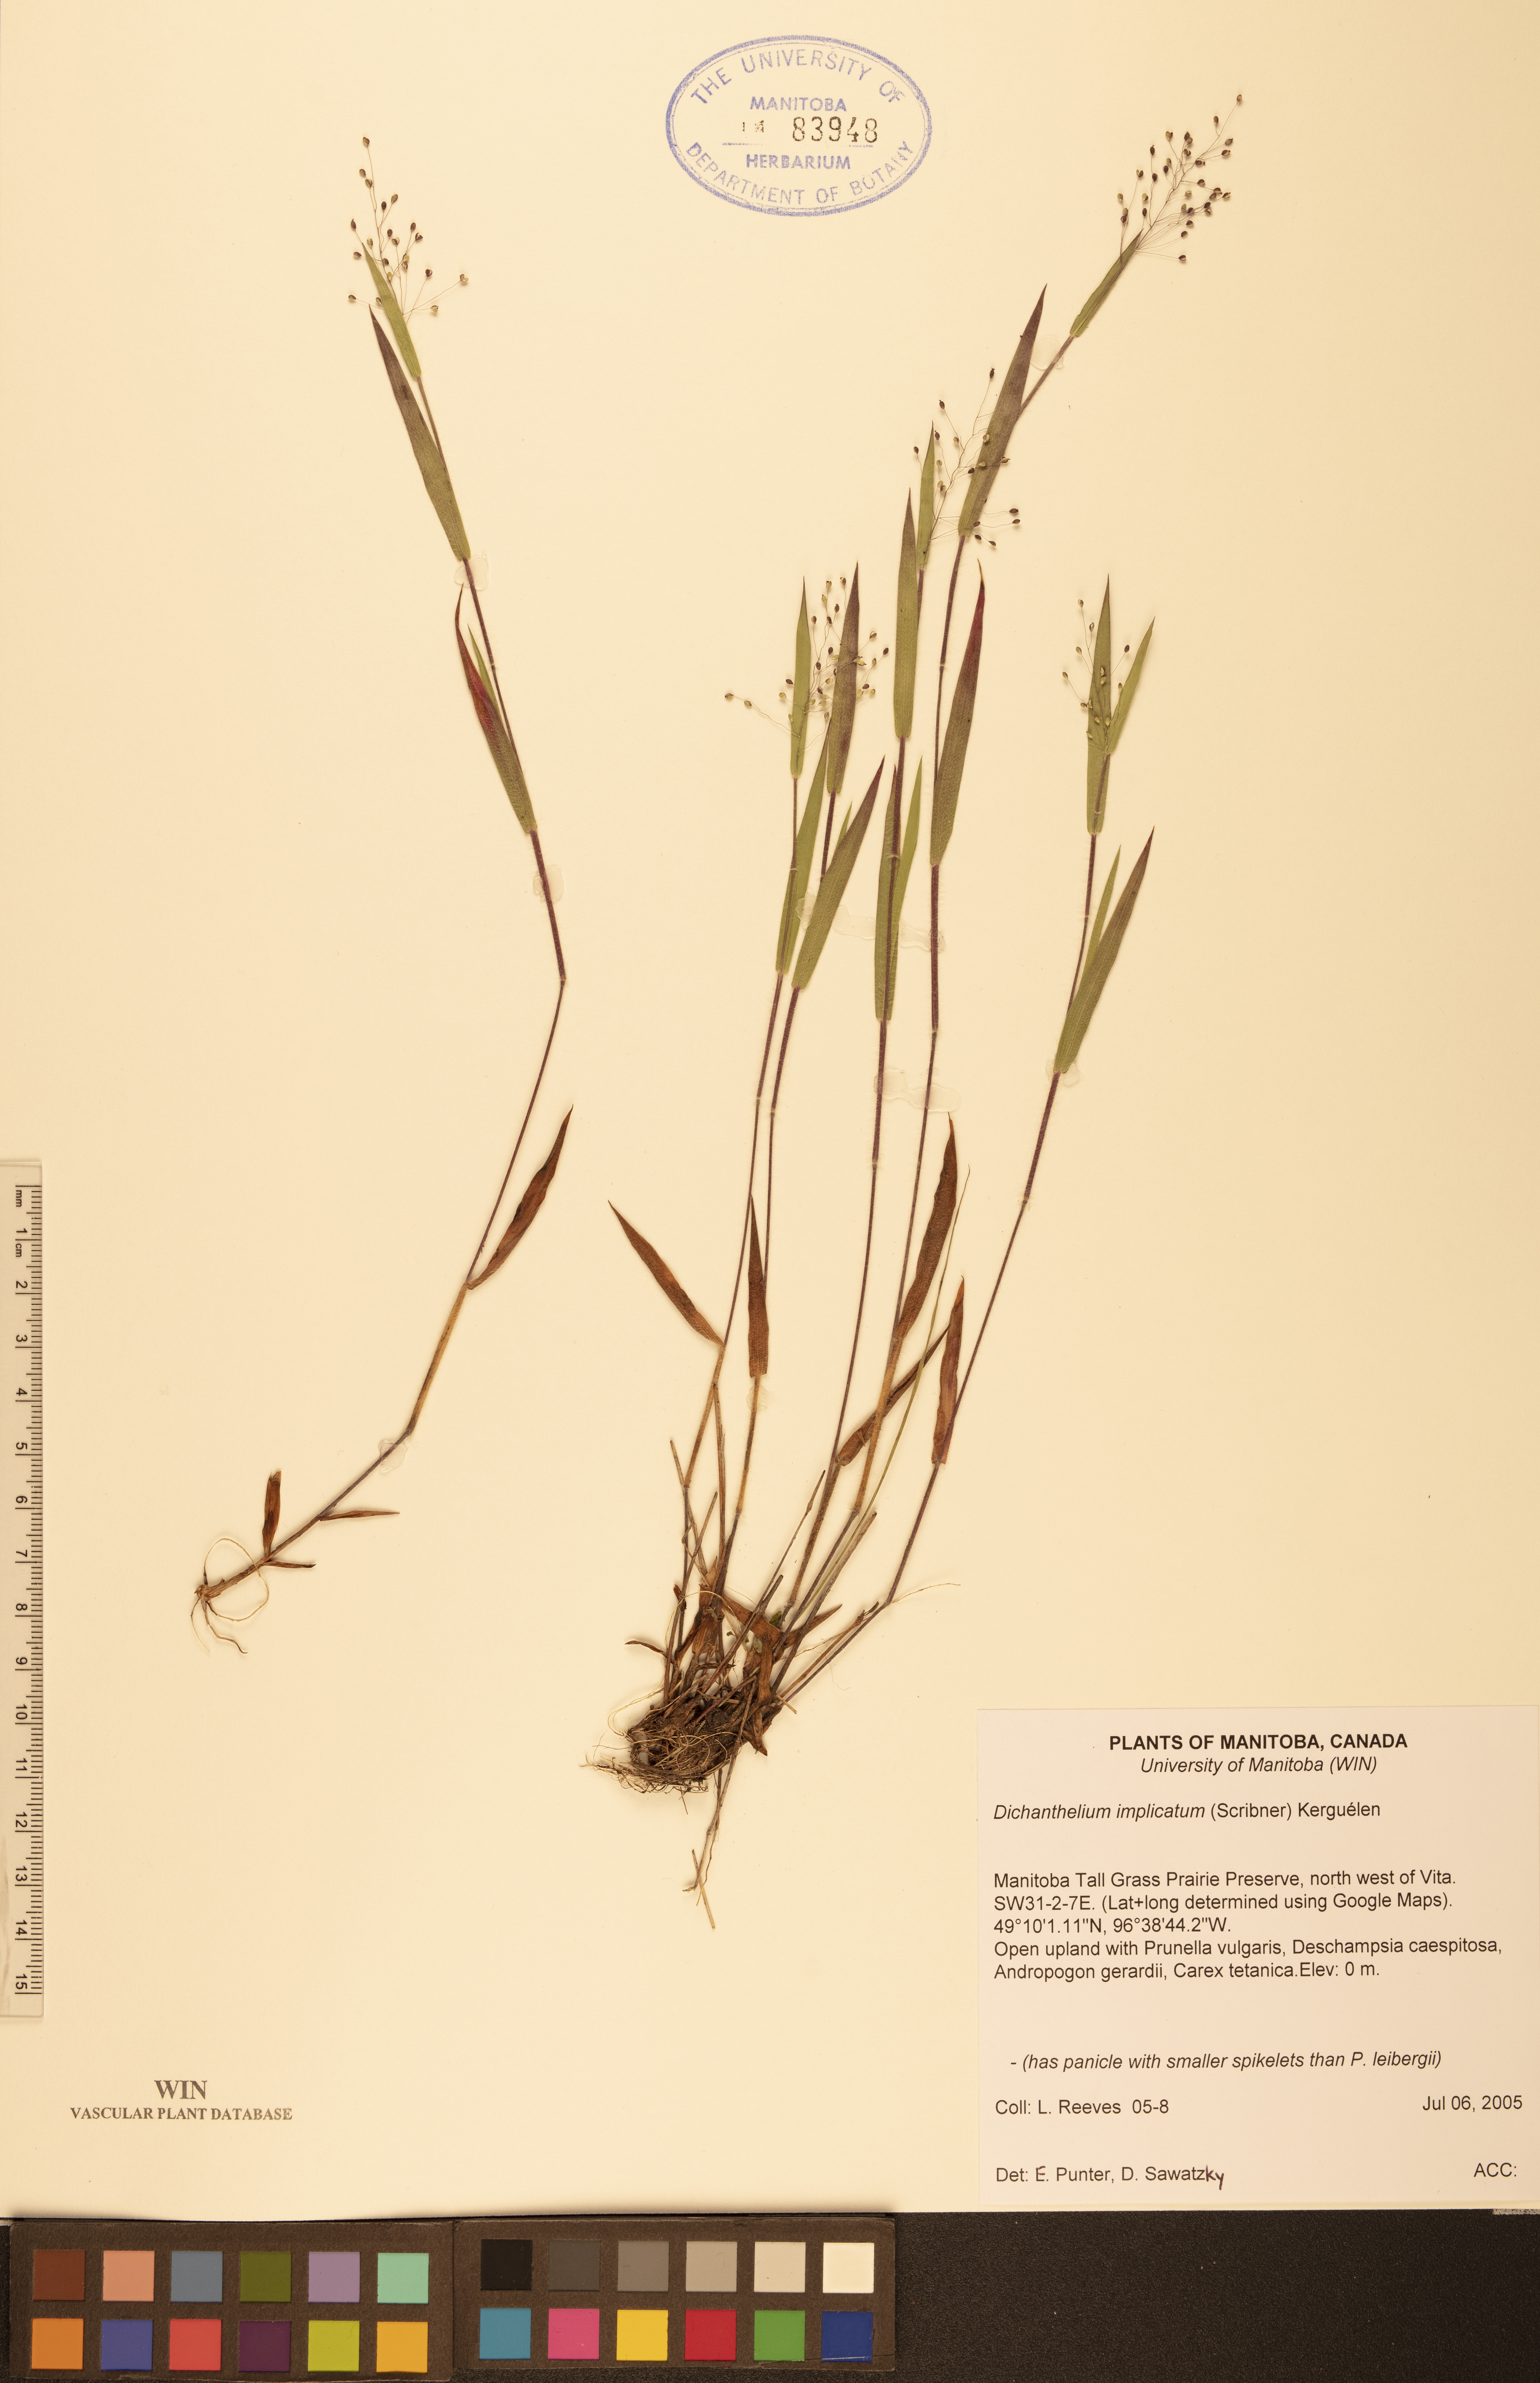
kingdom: Plantae
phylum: Tracheophyta
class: Liliopsida
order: Poales
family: Poaceae
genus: Dichanthelium
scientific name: Dichanthelium implicatum
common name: Slender-stemmed panicgrass
